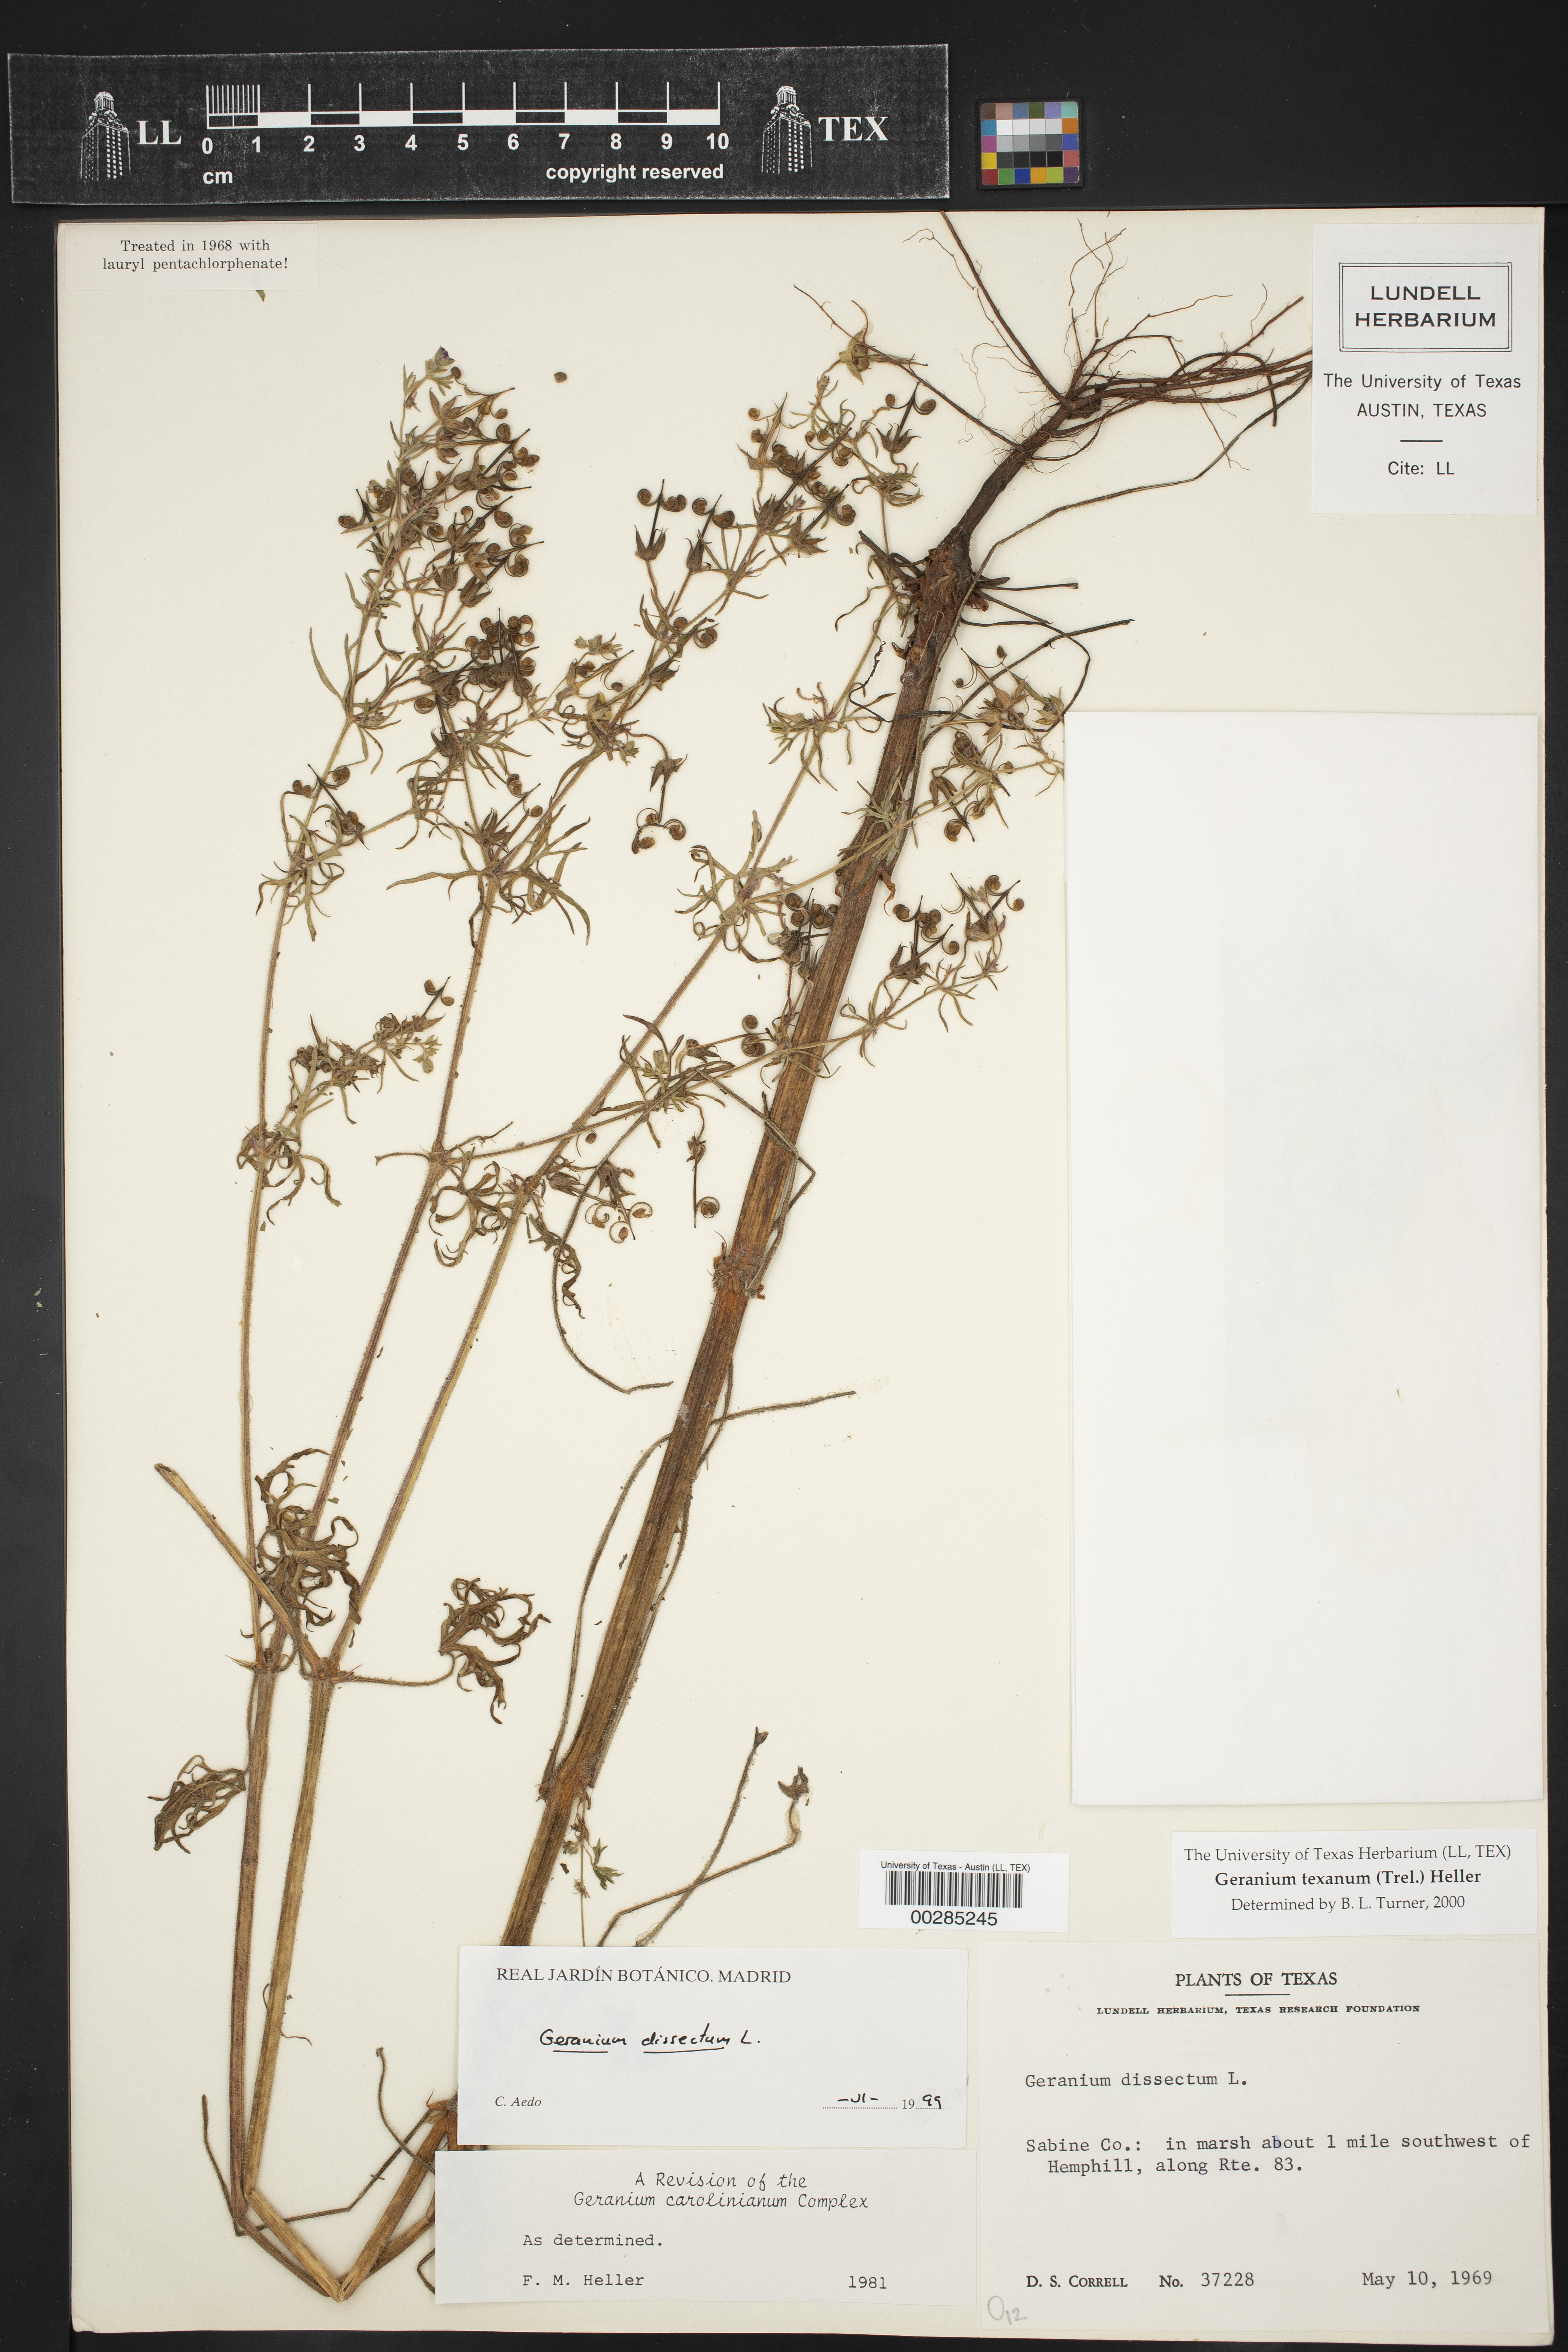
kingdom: Plantae
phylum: Tracheophyta
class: Magnoliopsida
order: Geraniales
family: Geraniaceae
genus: Geranium
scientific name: Geranium texanum
